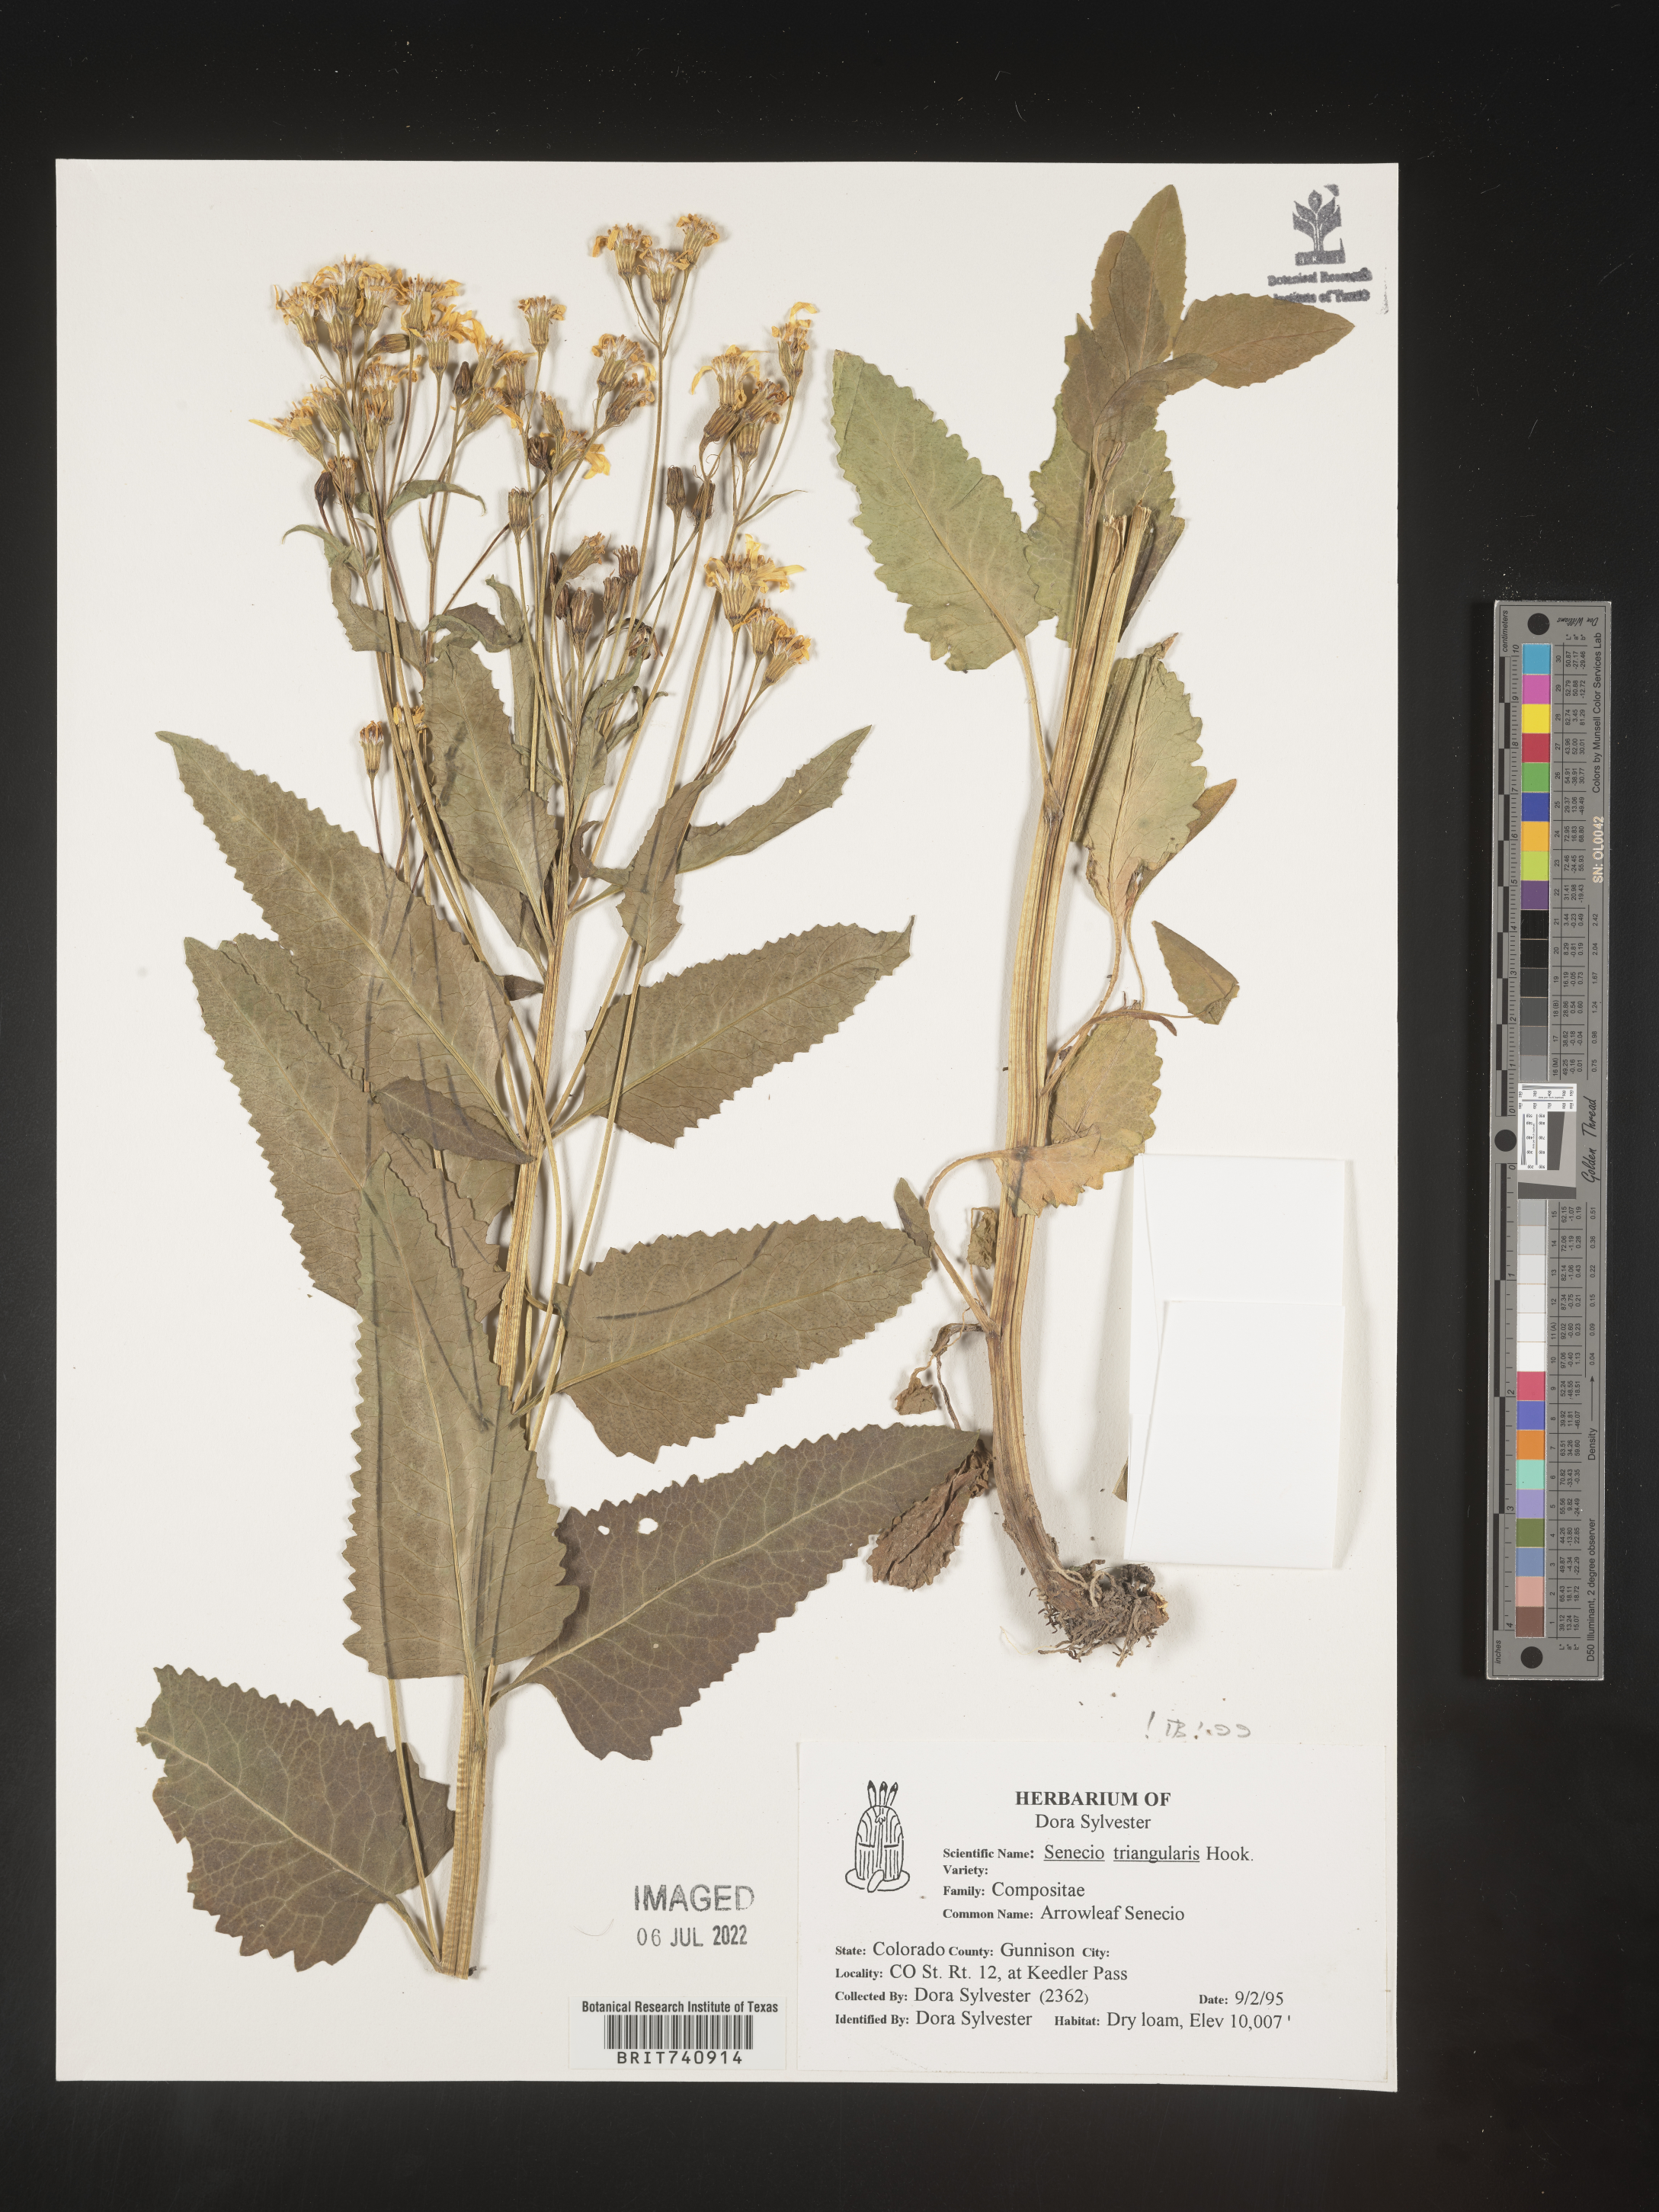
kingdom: Plantae
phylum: Tracheophyta
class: Magnoliopsida
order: Asterales
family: Asteraceae
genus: Senecio
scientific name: Senecio triangularis
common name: Arrowleaf butterweed
